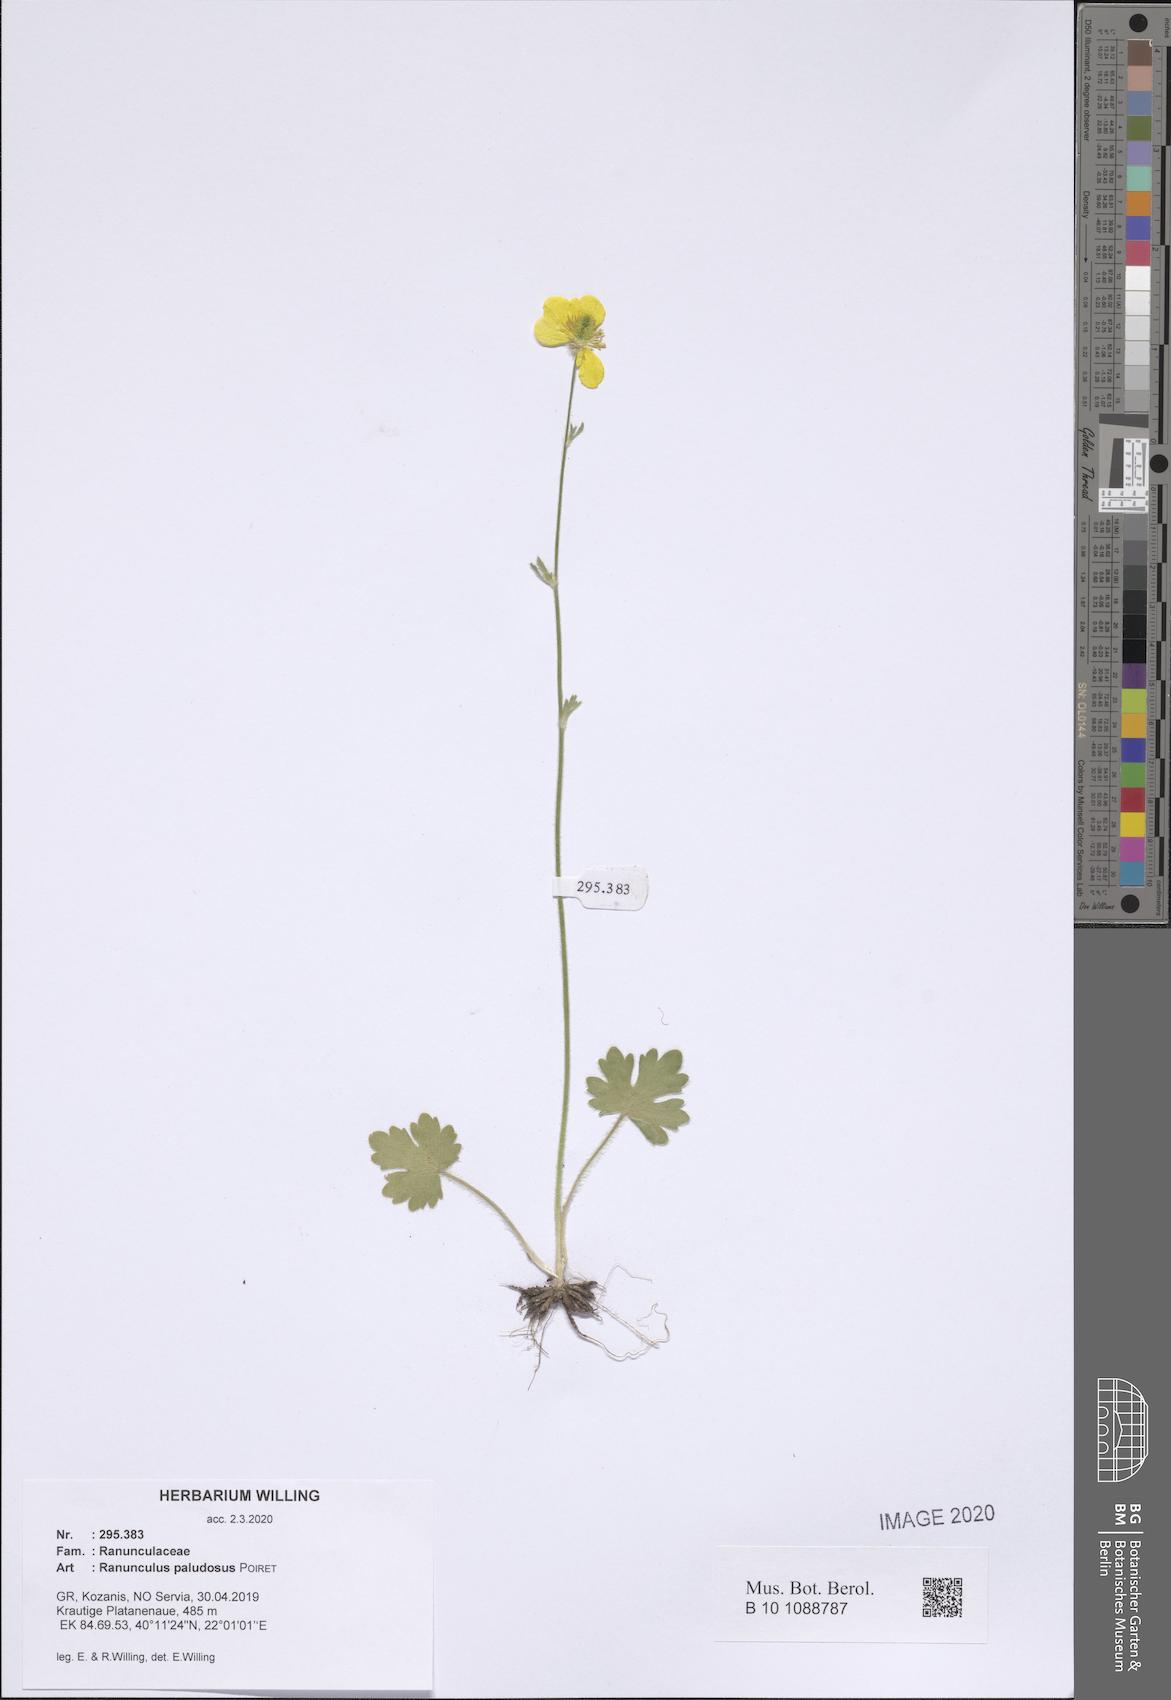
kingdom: Plantae
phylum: Tracheophyta
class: Magnoliopsida
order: Ranunculales
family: Ranunculaceae
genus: Ranunculus
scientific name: Ranunculus paludosus
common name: Jersey buttercup
